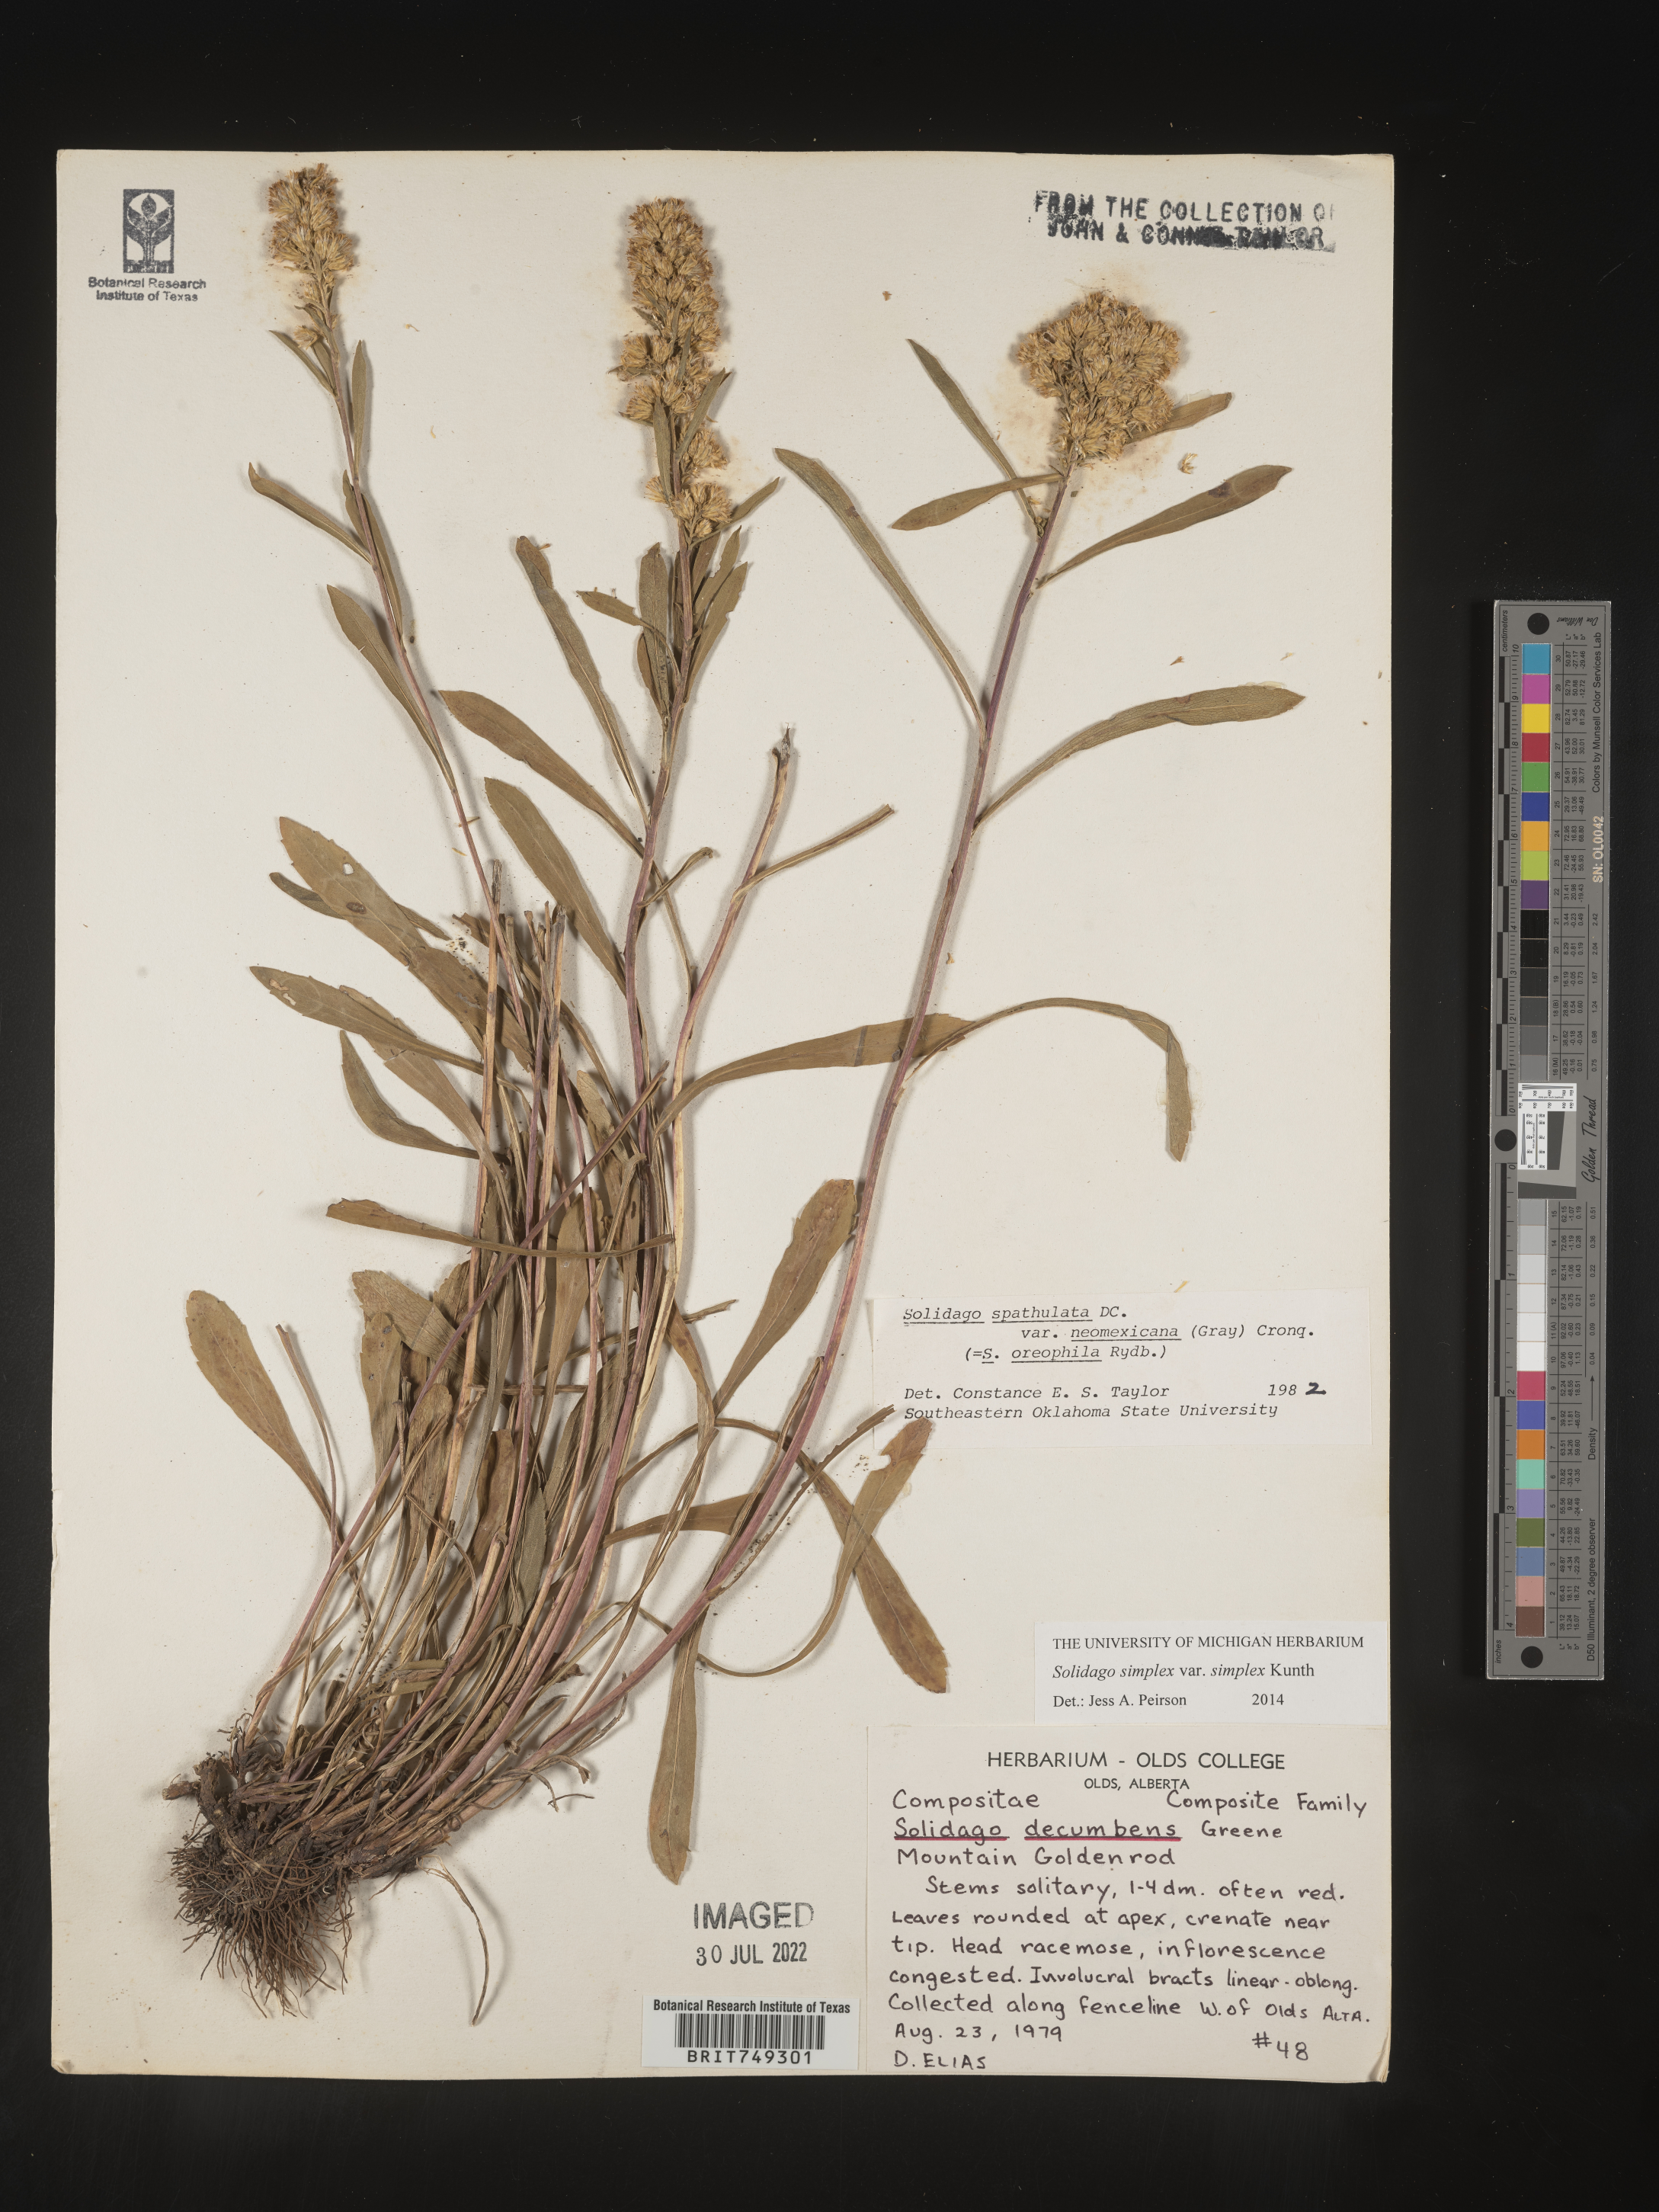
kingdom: Plantae
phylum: Tracheophyta
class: Magnoliopsida
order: Asterales
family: Asteraceae
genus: Solidago
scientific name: Solidago simplex
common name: Sticky goldenrod
